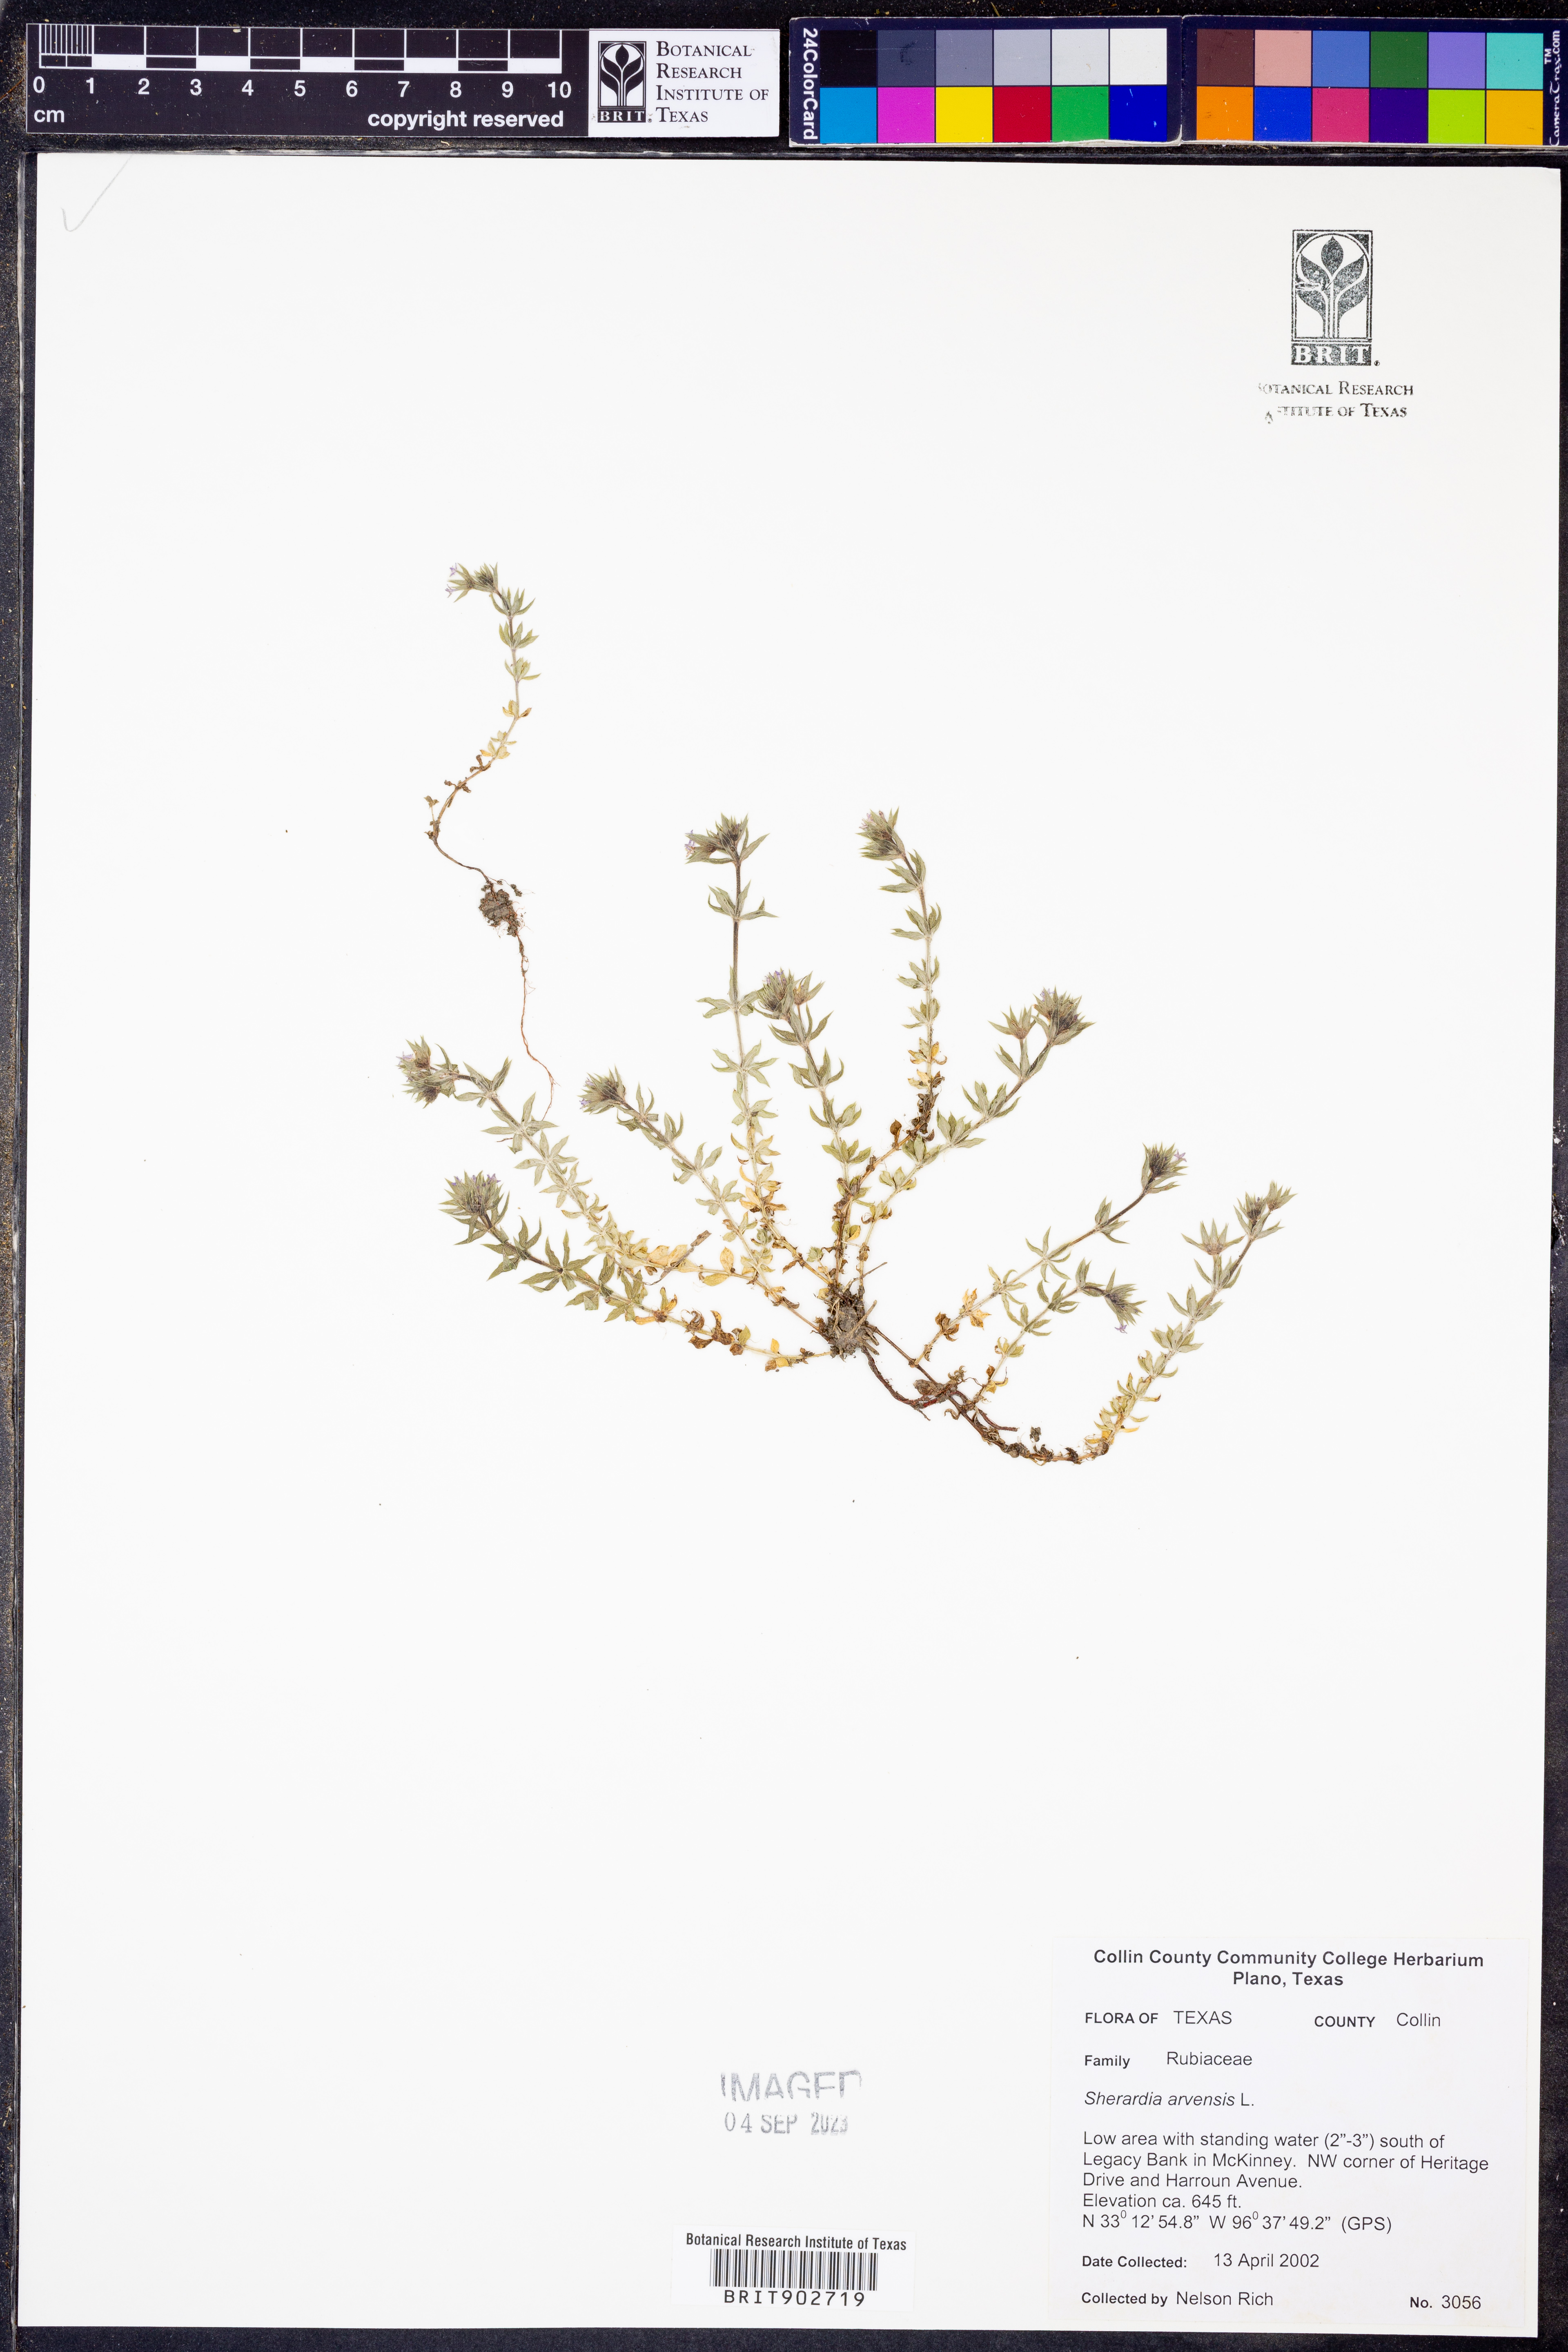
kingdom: Plantae
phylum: Tracheophyta
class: Magnoliopsida
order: Gentianales
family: Rubiaceae
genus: Sherardia
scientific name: Sherardia arvensis
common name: Field madder
